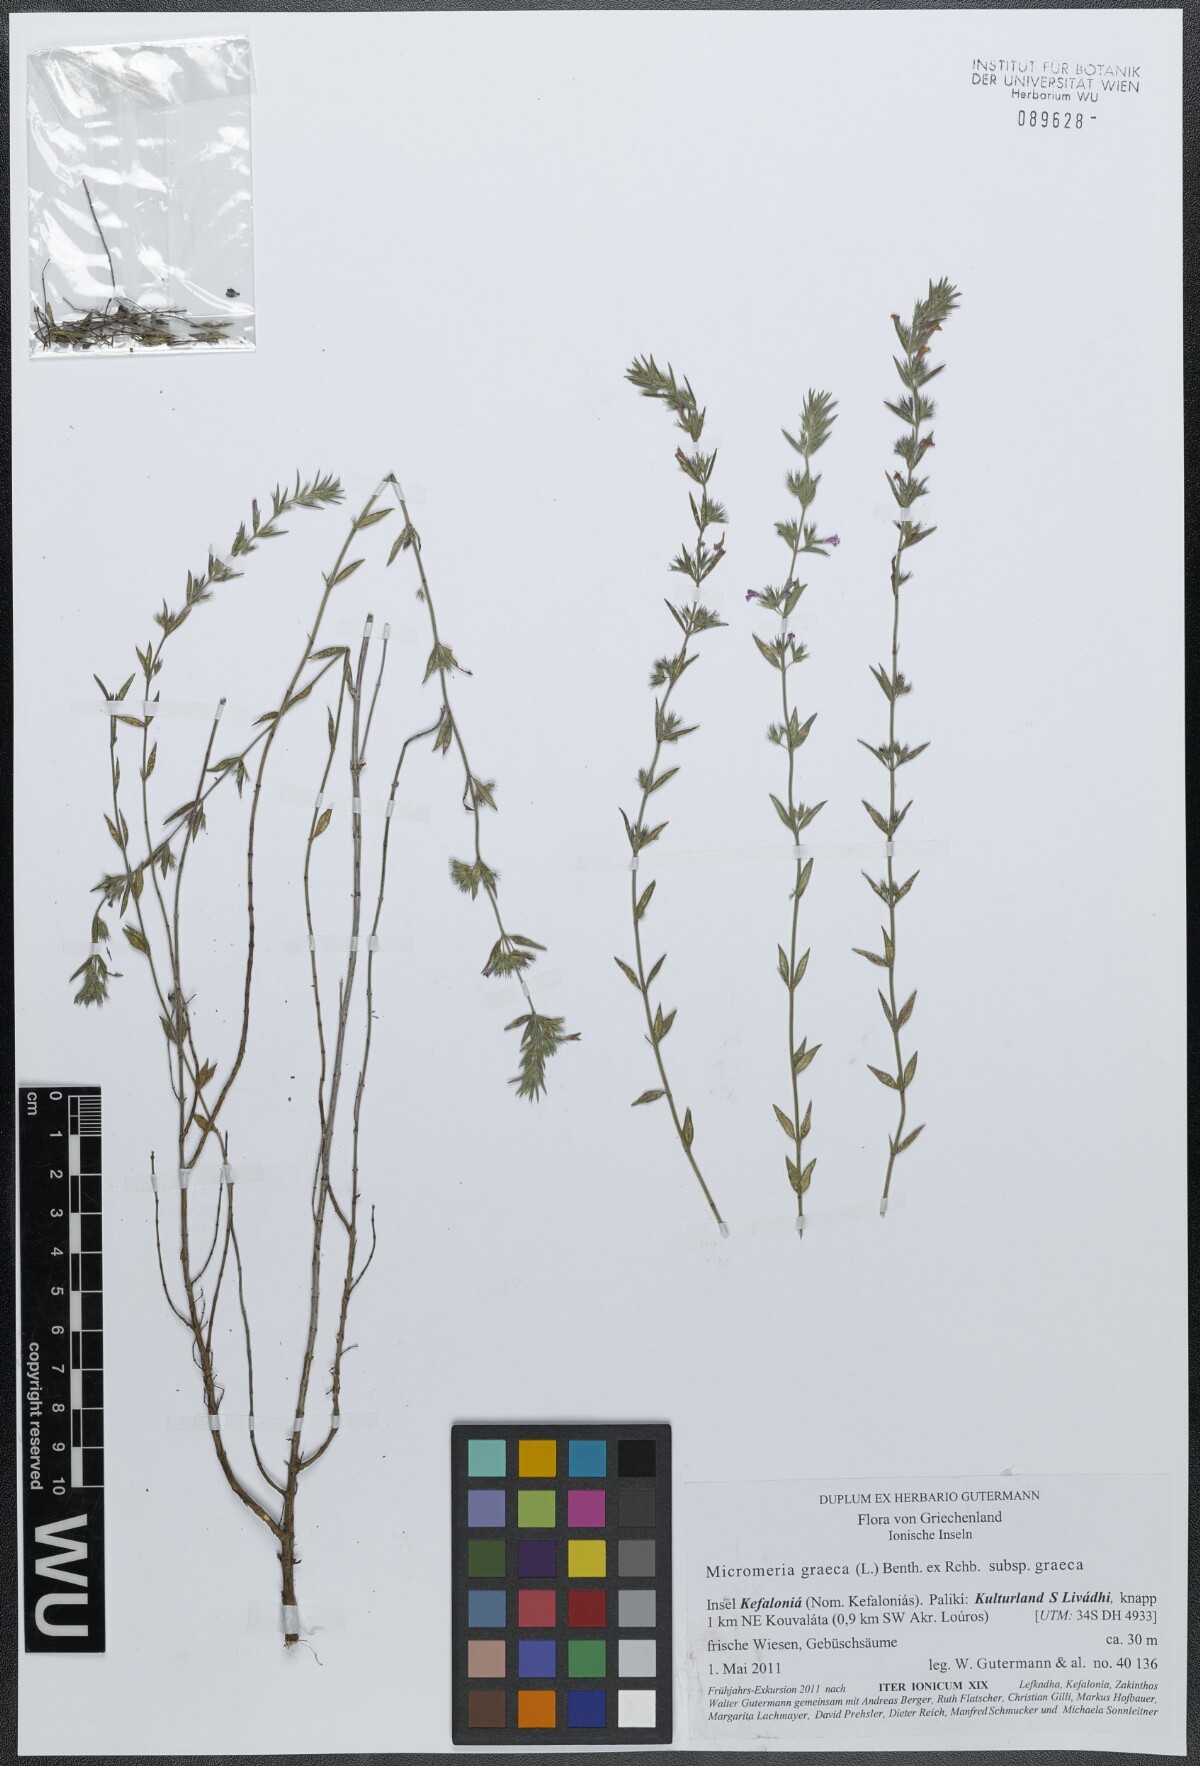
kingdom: Plantae
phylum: Tracheophyta
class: Magnoliopsida
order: Lamiales
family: Lamiaceae
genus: Micromeria
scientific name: Micromeria graeca
